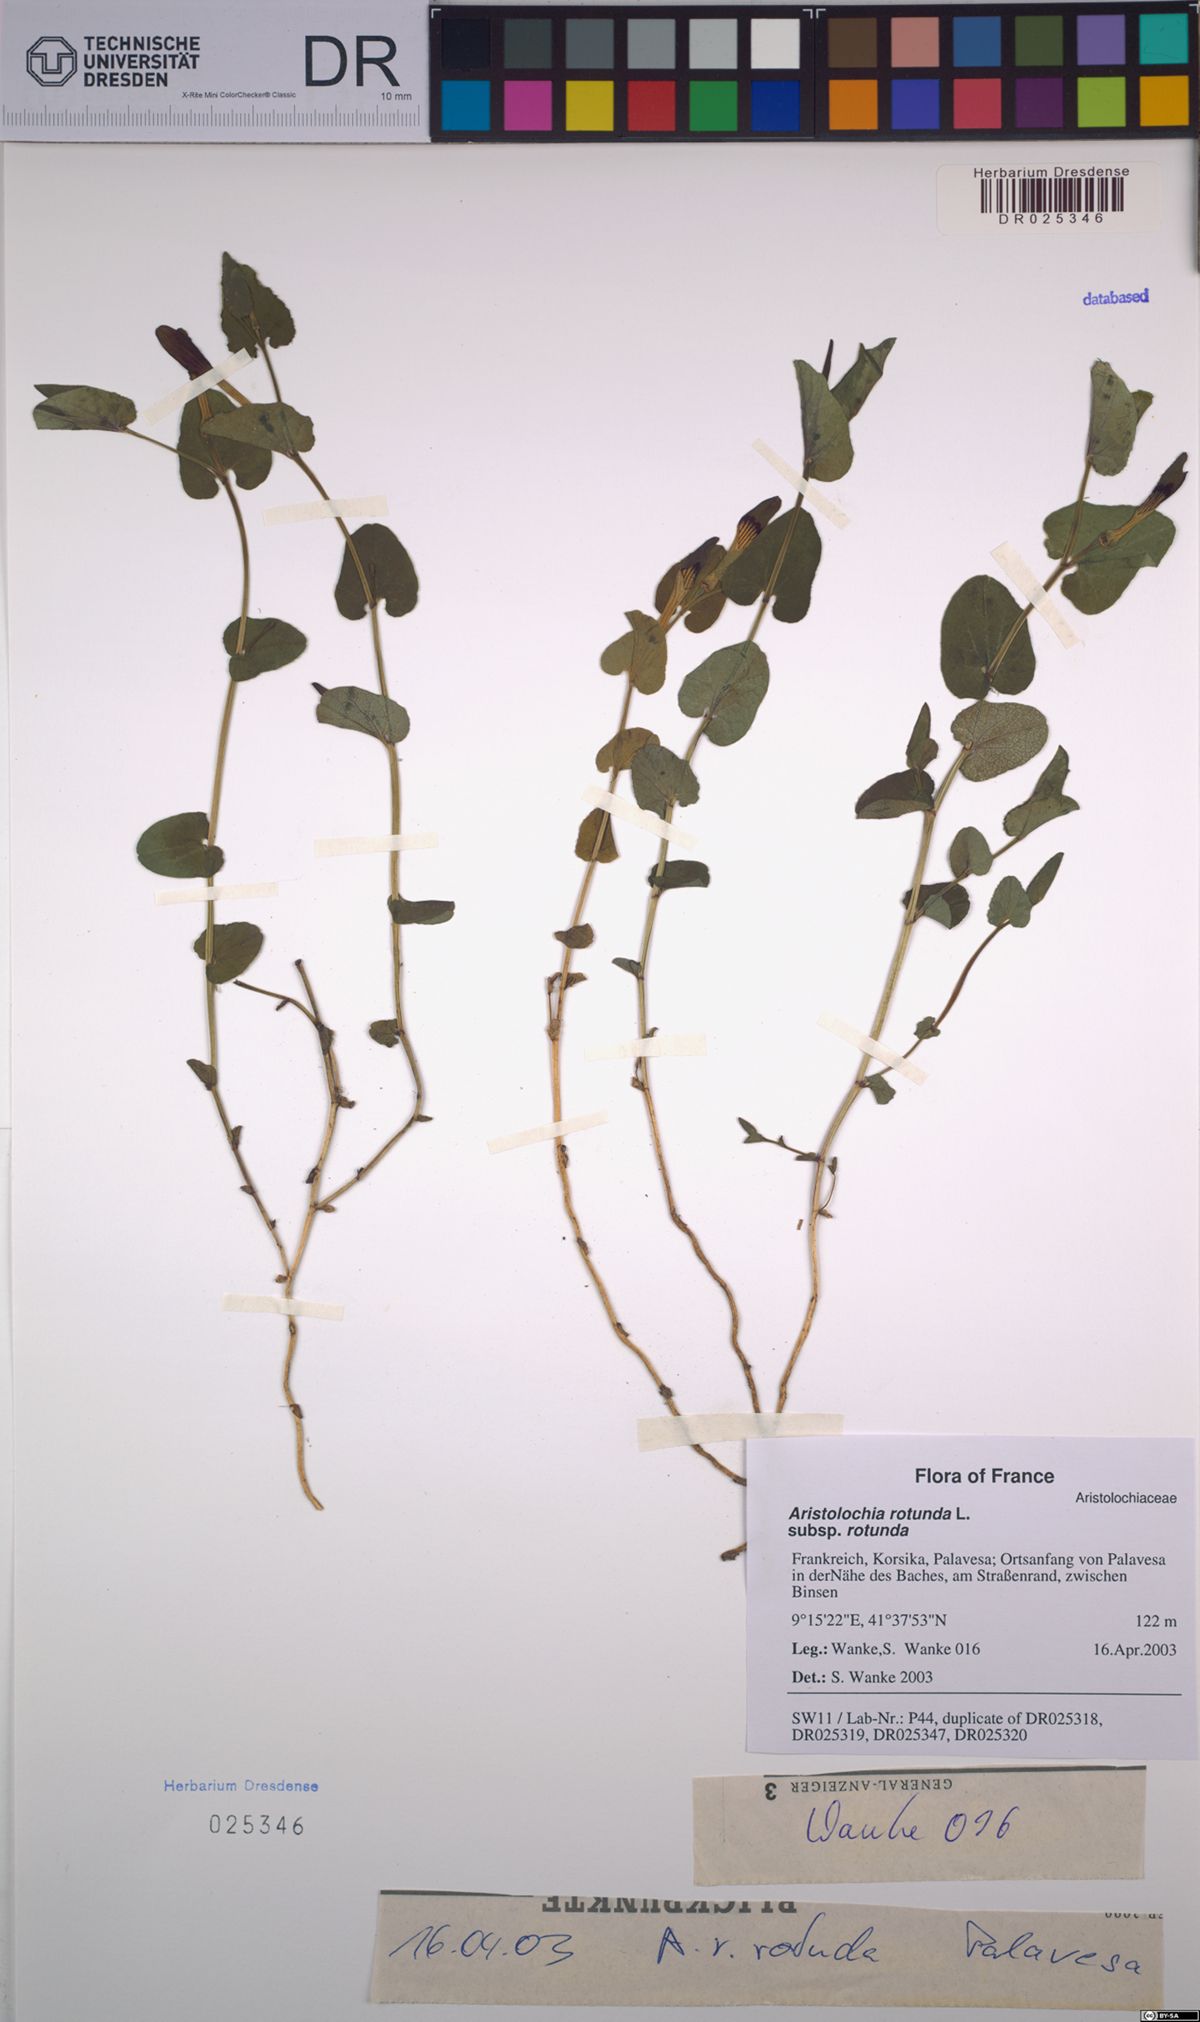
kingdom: Plantae
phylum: Tracheophyta
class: Magnoliopsida
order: Piperales
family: Aristolochiaceae
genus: Aristolochia
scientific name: Aristolochia rotunda
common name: Smearwort
